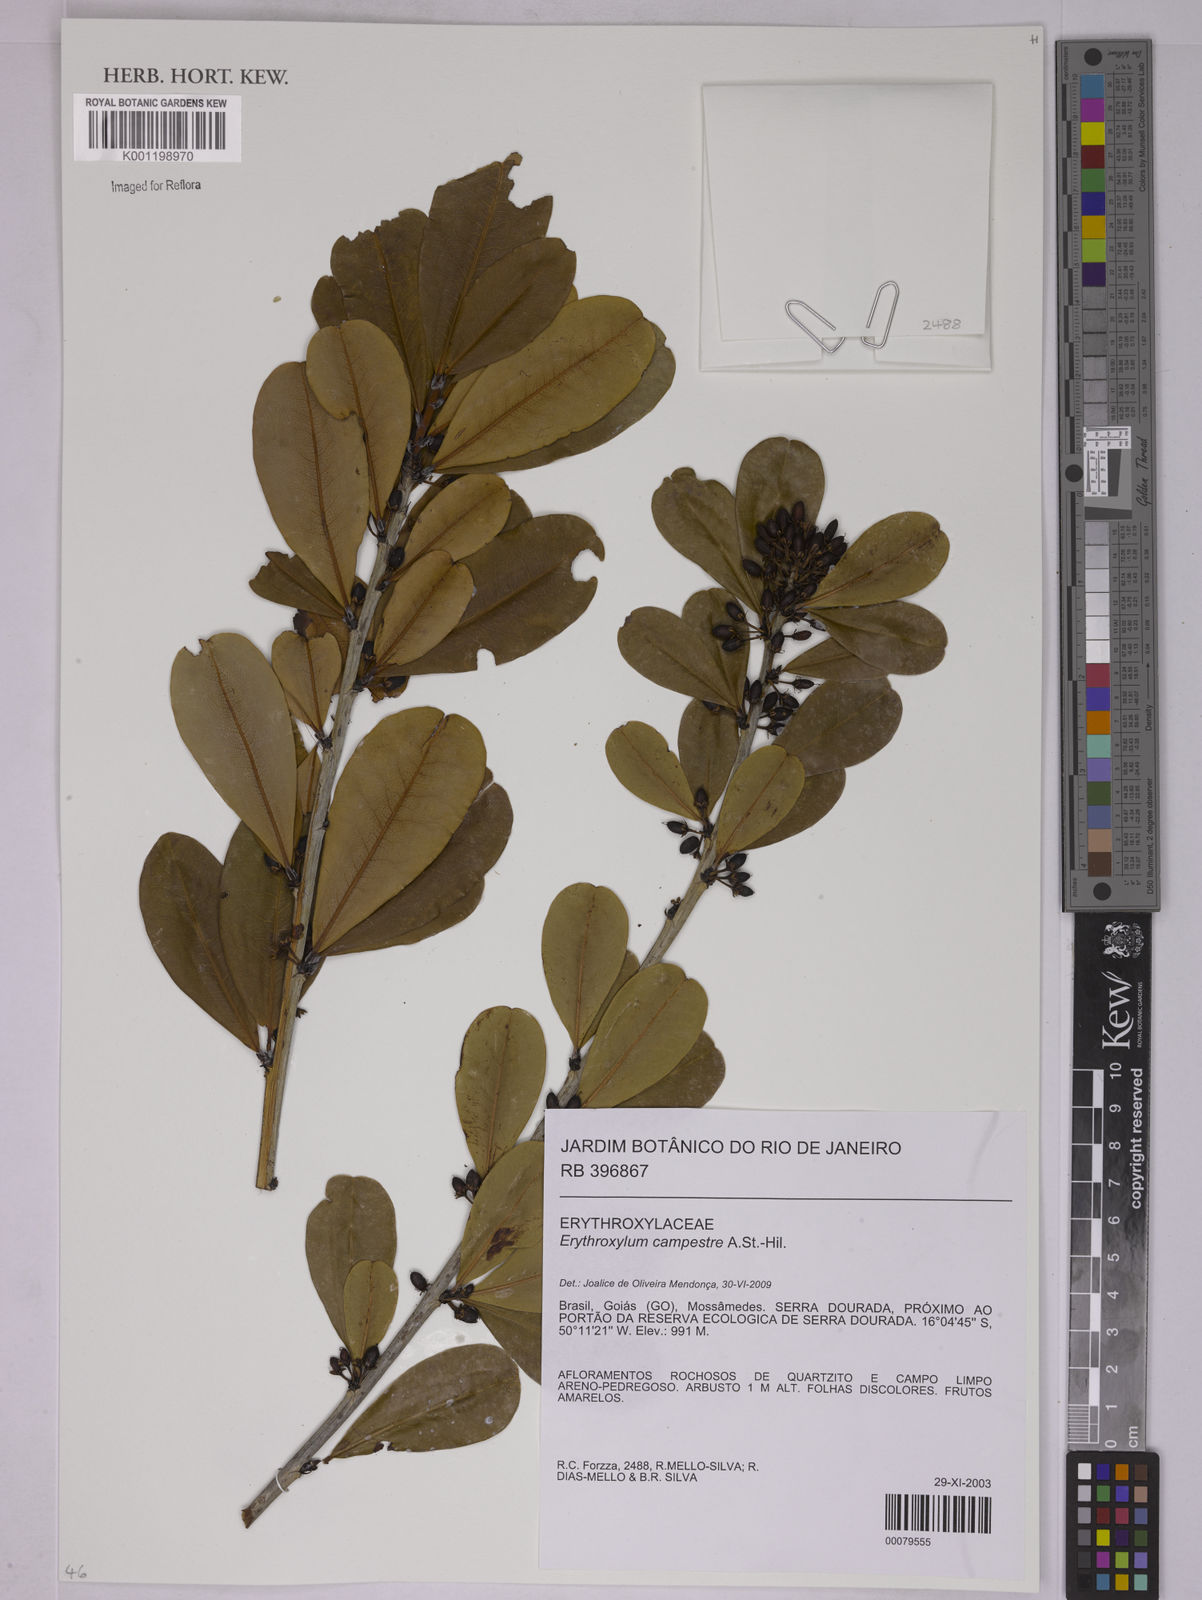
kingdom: Plantae
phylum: Tracheophyta
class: Magnoliopsida
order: Malpighiales
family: Erythroxylaceae
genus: Erythroxylum
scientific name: Erythroxylum campestre
